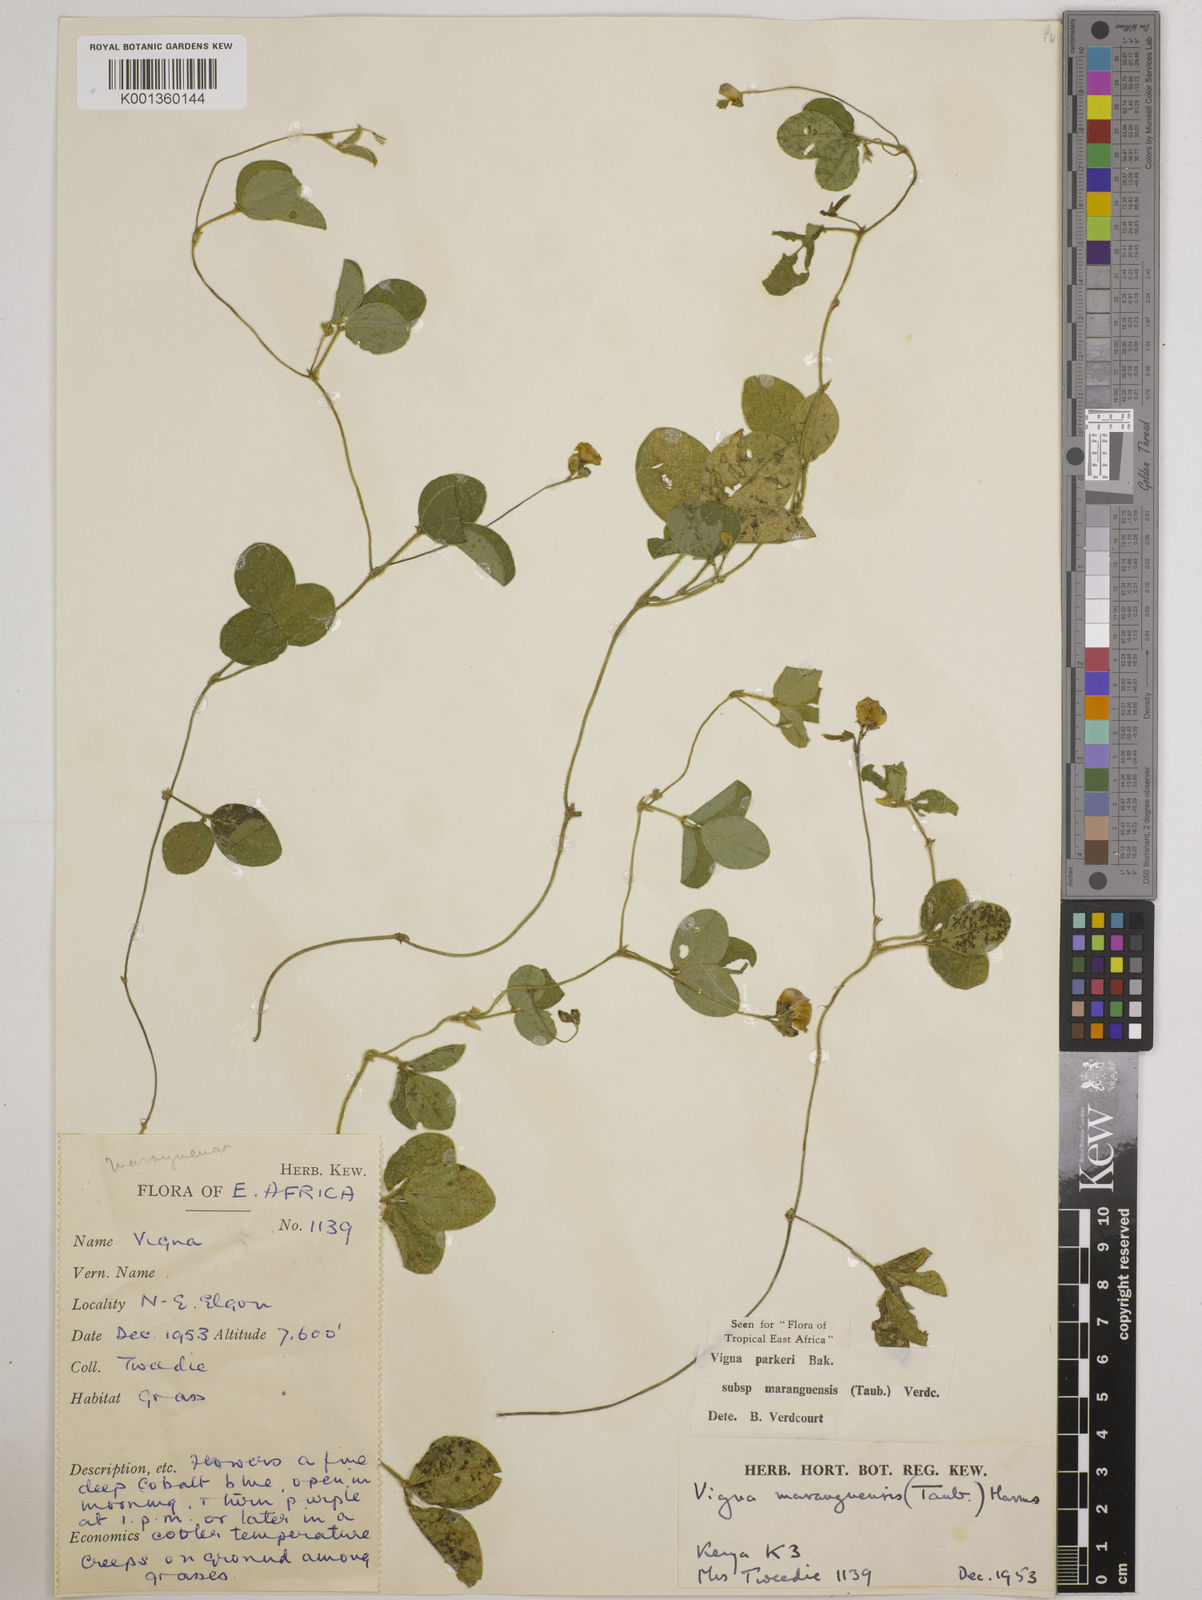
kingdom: Plantae
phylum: Tracheophyta
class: Magnoliopsida
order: Fabales
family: Fabaceae
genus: Vigna
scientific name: Vigna
